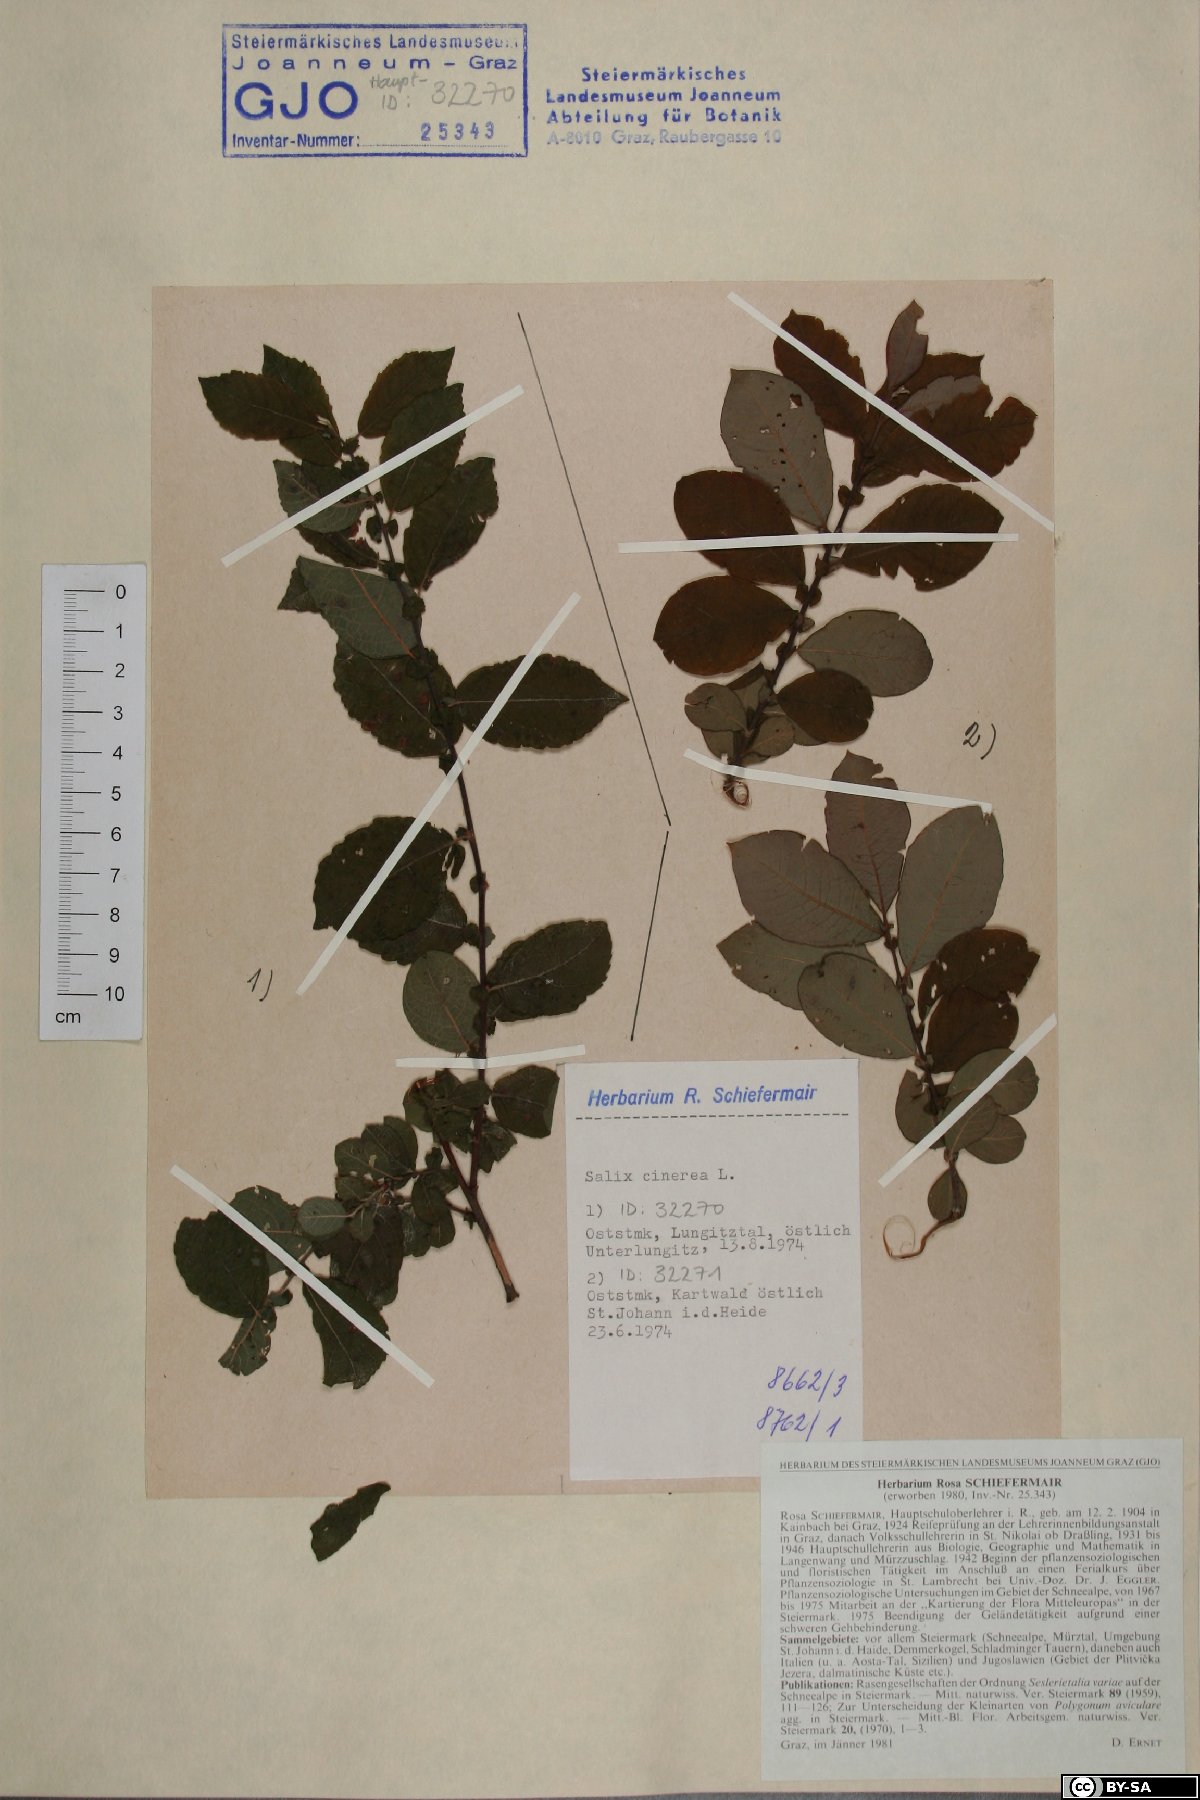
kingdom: Plantae
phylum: Tracheophyta
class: Magnoliopsida
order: Malpighiales
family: Salicaceae
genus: Salix
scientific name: Salix cinerea
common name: Common sallow
